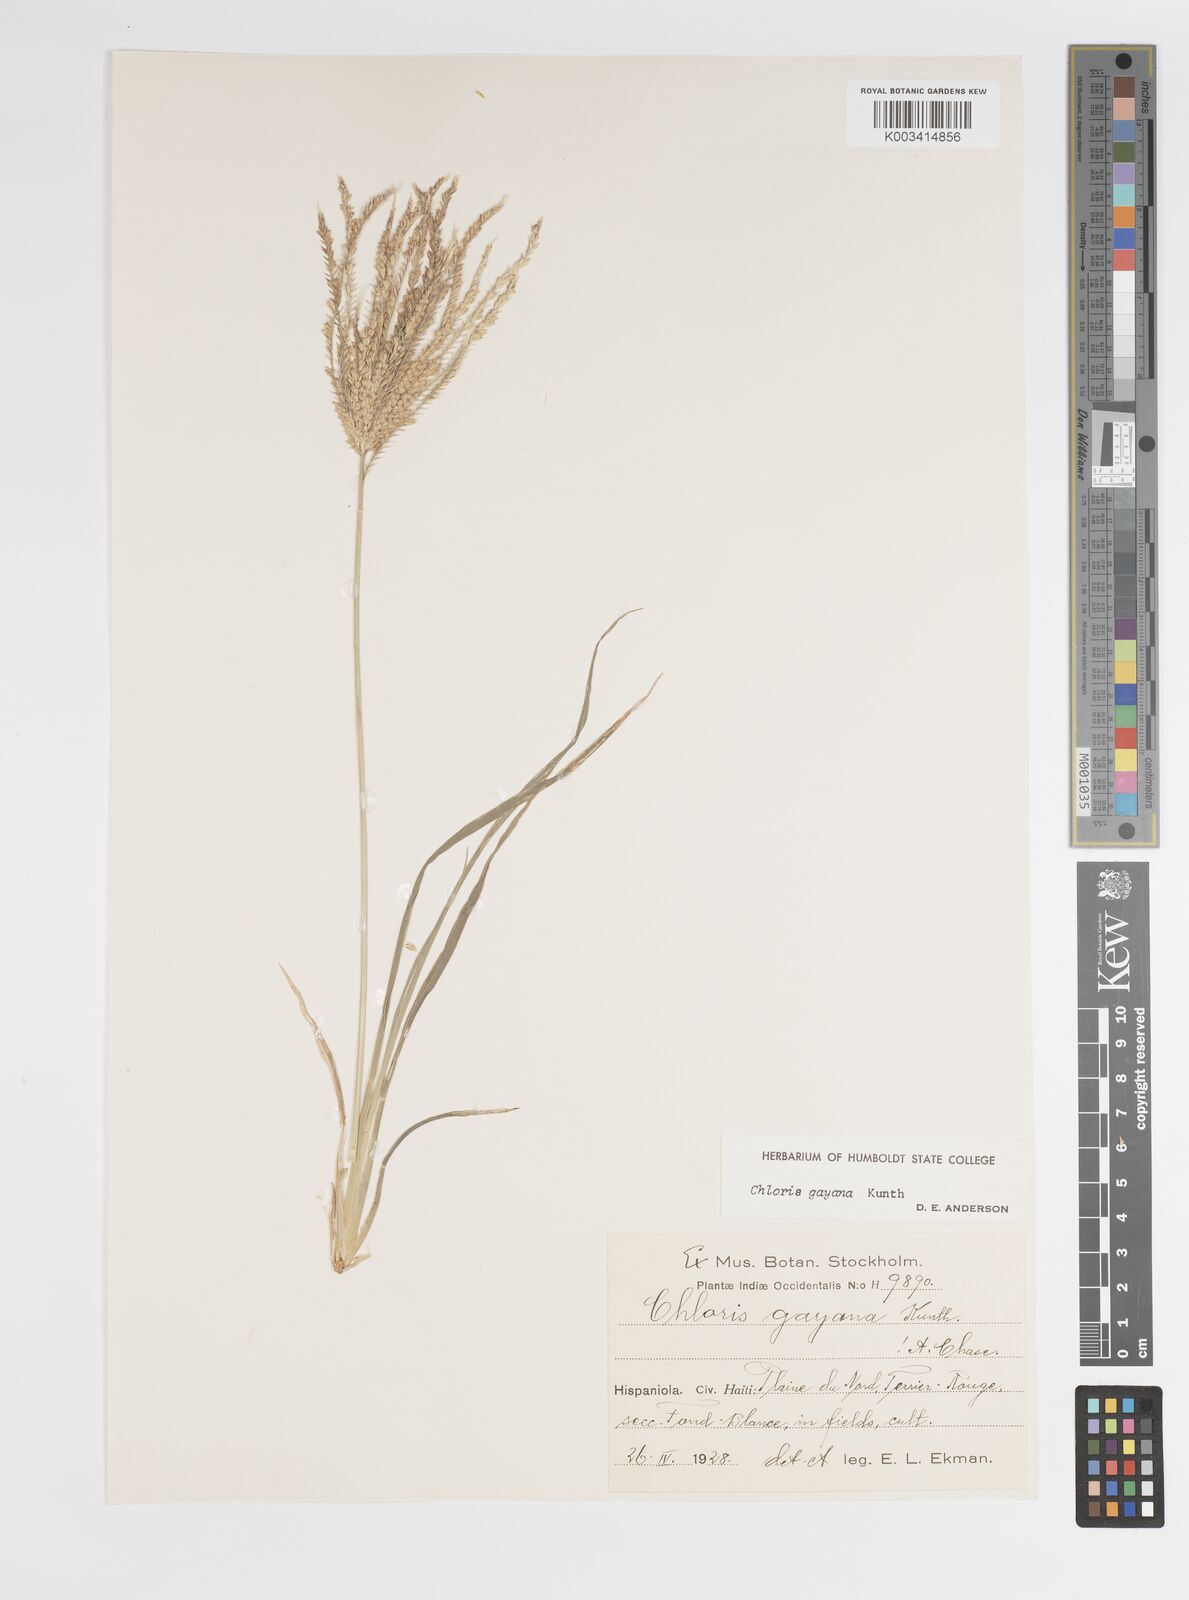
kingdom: Plantae
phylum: Tracheophyta
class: Liliopsida
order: Poales
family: Poaceae
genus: Chloris
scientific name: Chloris gayana
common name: Rhodes grass
